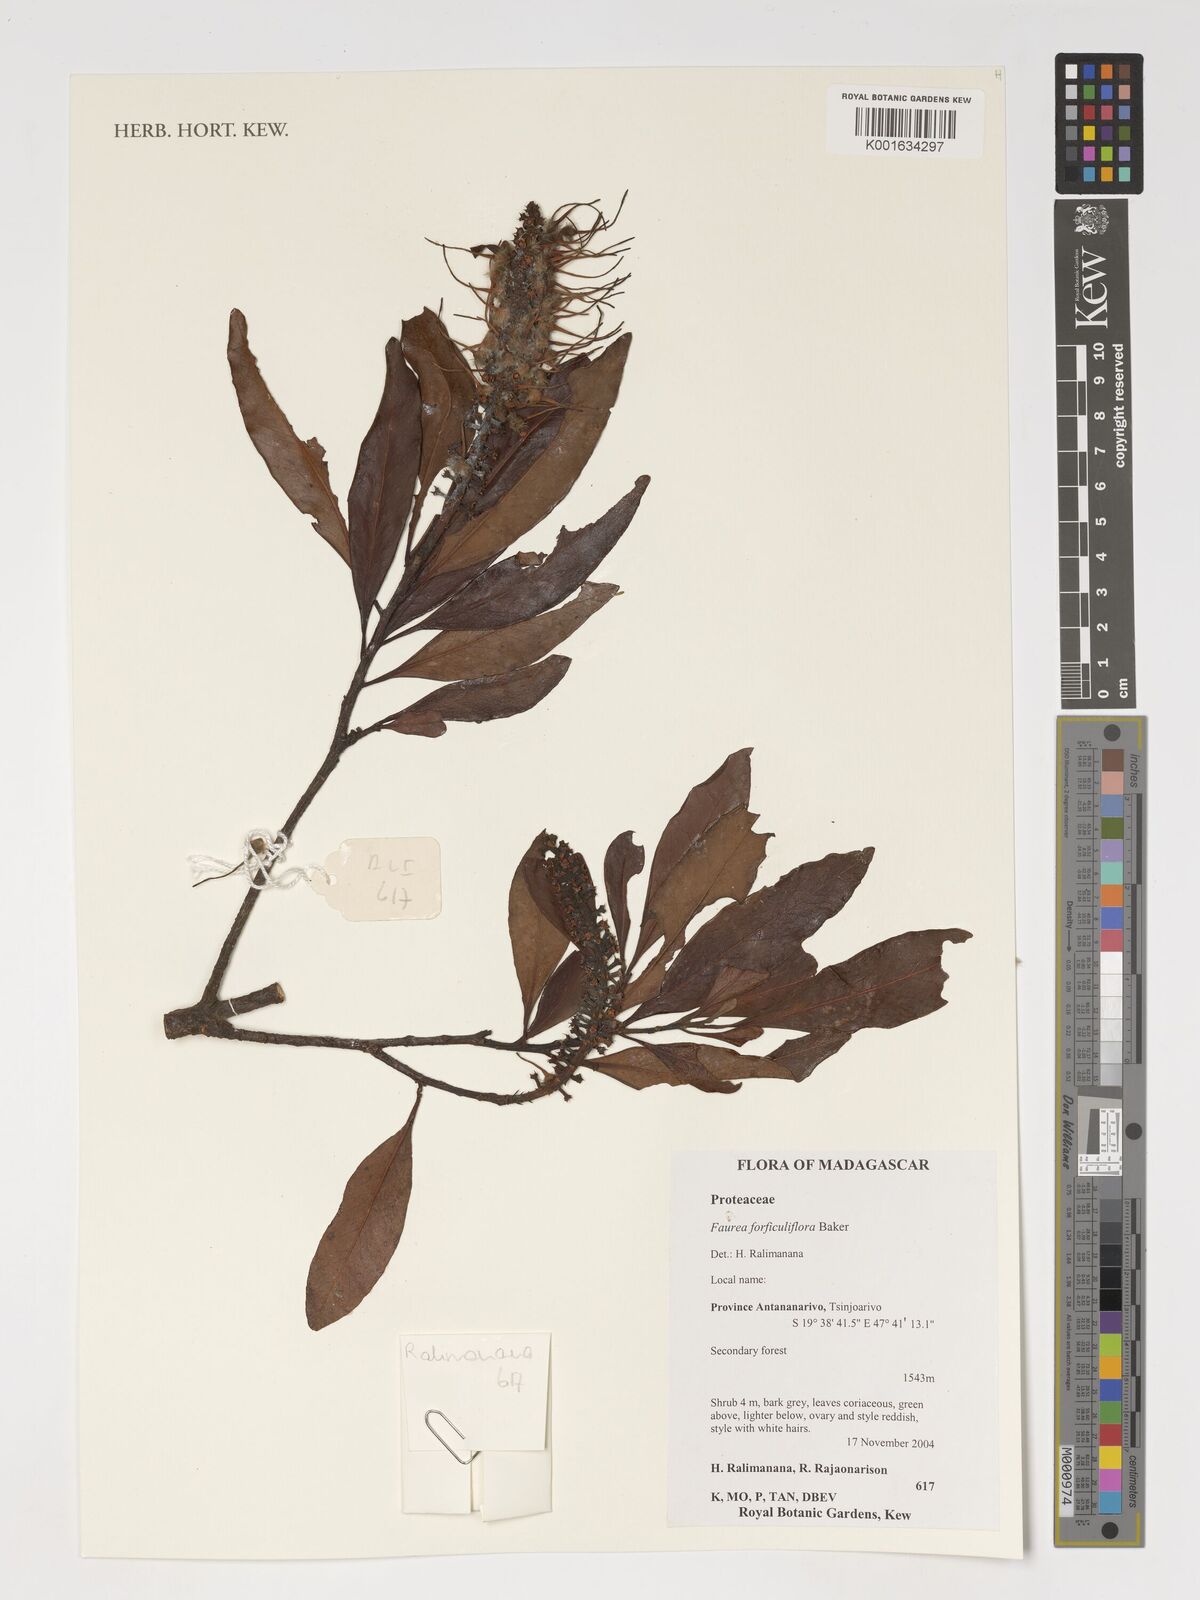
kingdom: Plantae
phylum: Tracheophyta
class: Magnoliopsida
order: Proteales
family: Proteaceae
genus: Faurea
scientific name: Faurea forficuliflora
